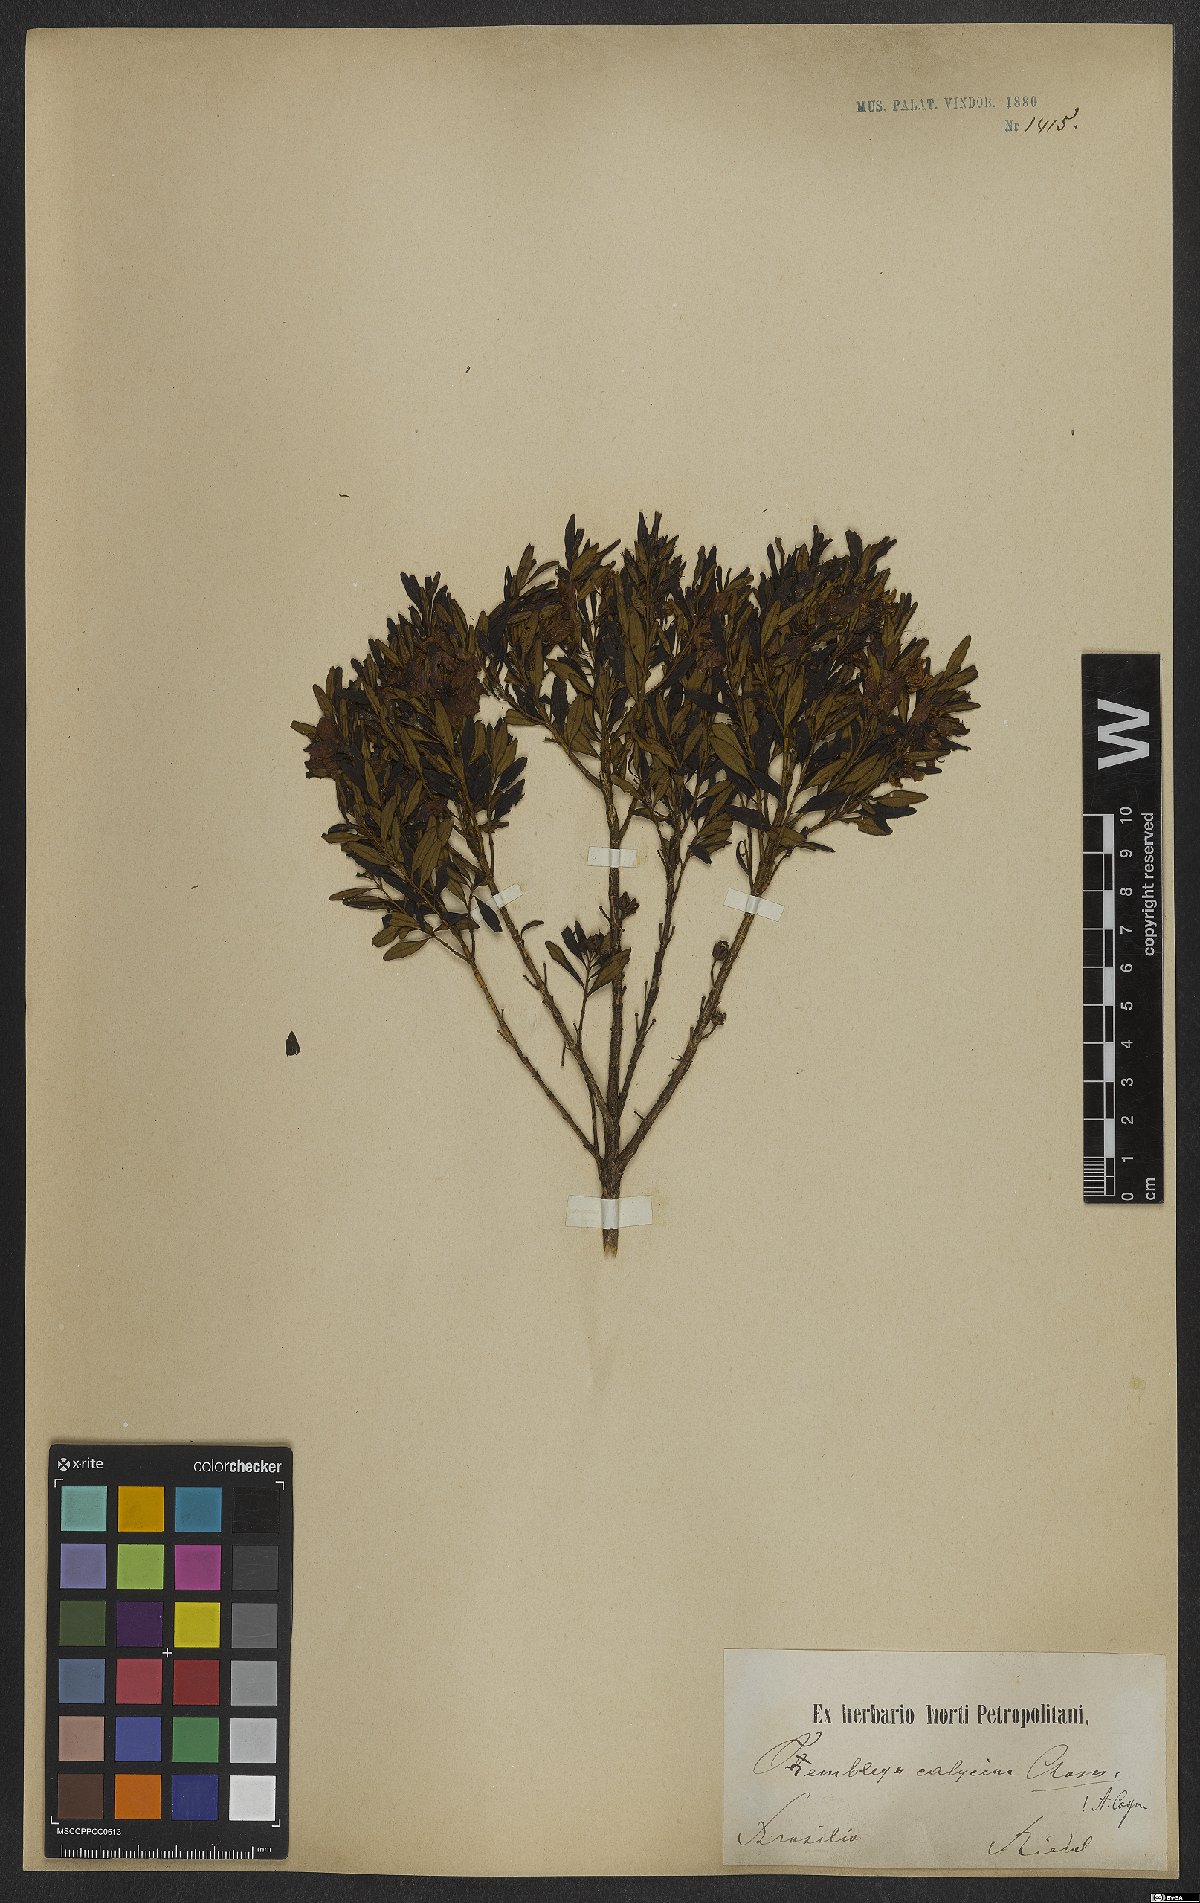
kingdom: Plantae
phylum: Tracheophyta
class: Magnoliopsida
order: Myrtales
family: Melastomataceae
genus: Microlicia
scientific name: Microlicia calycina
